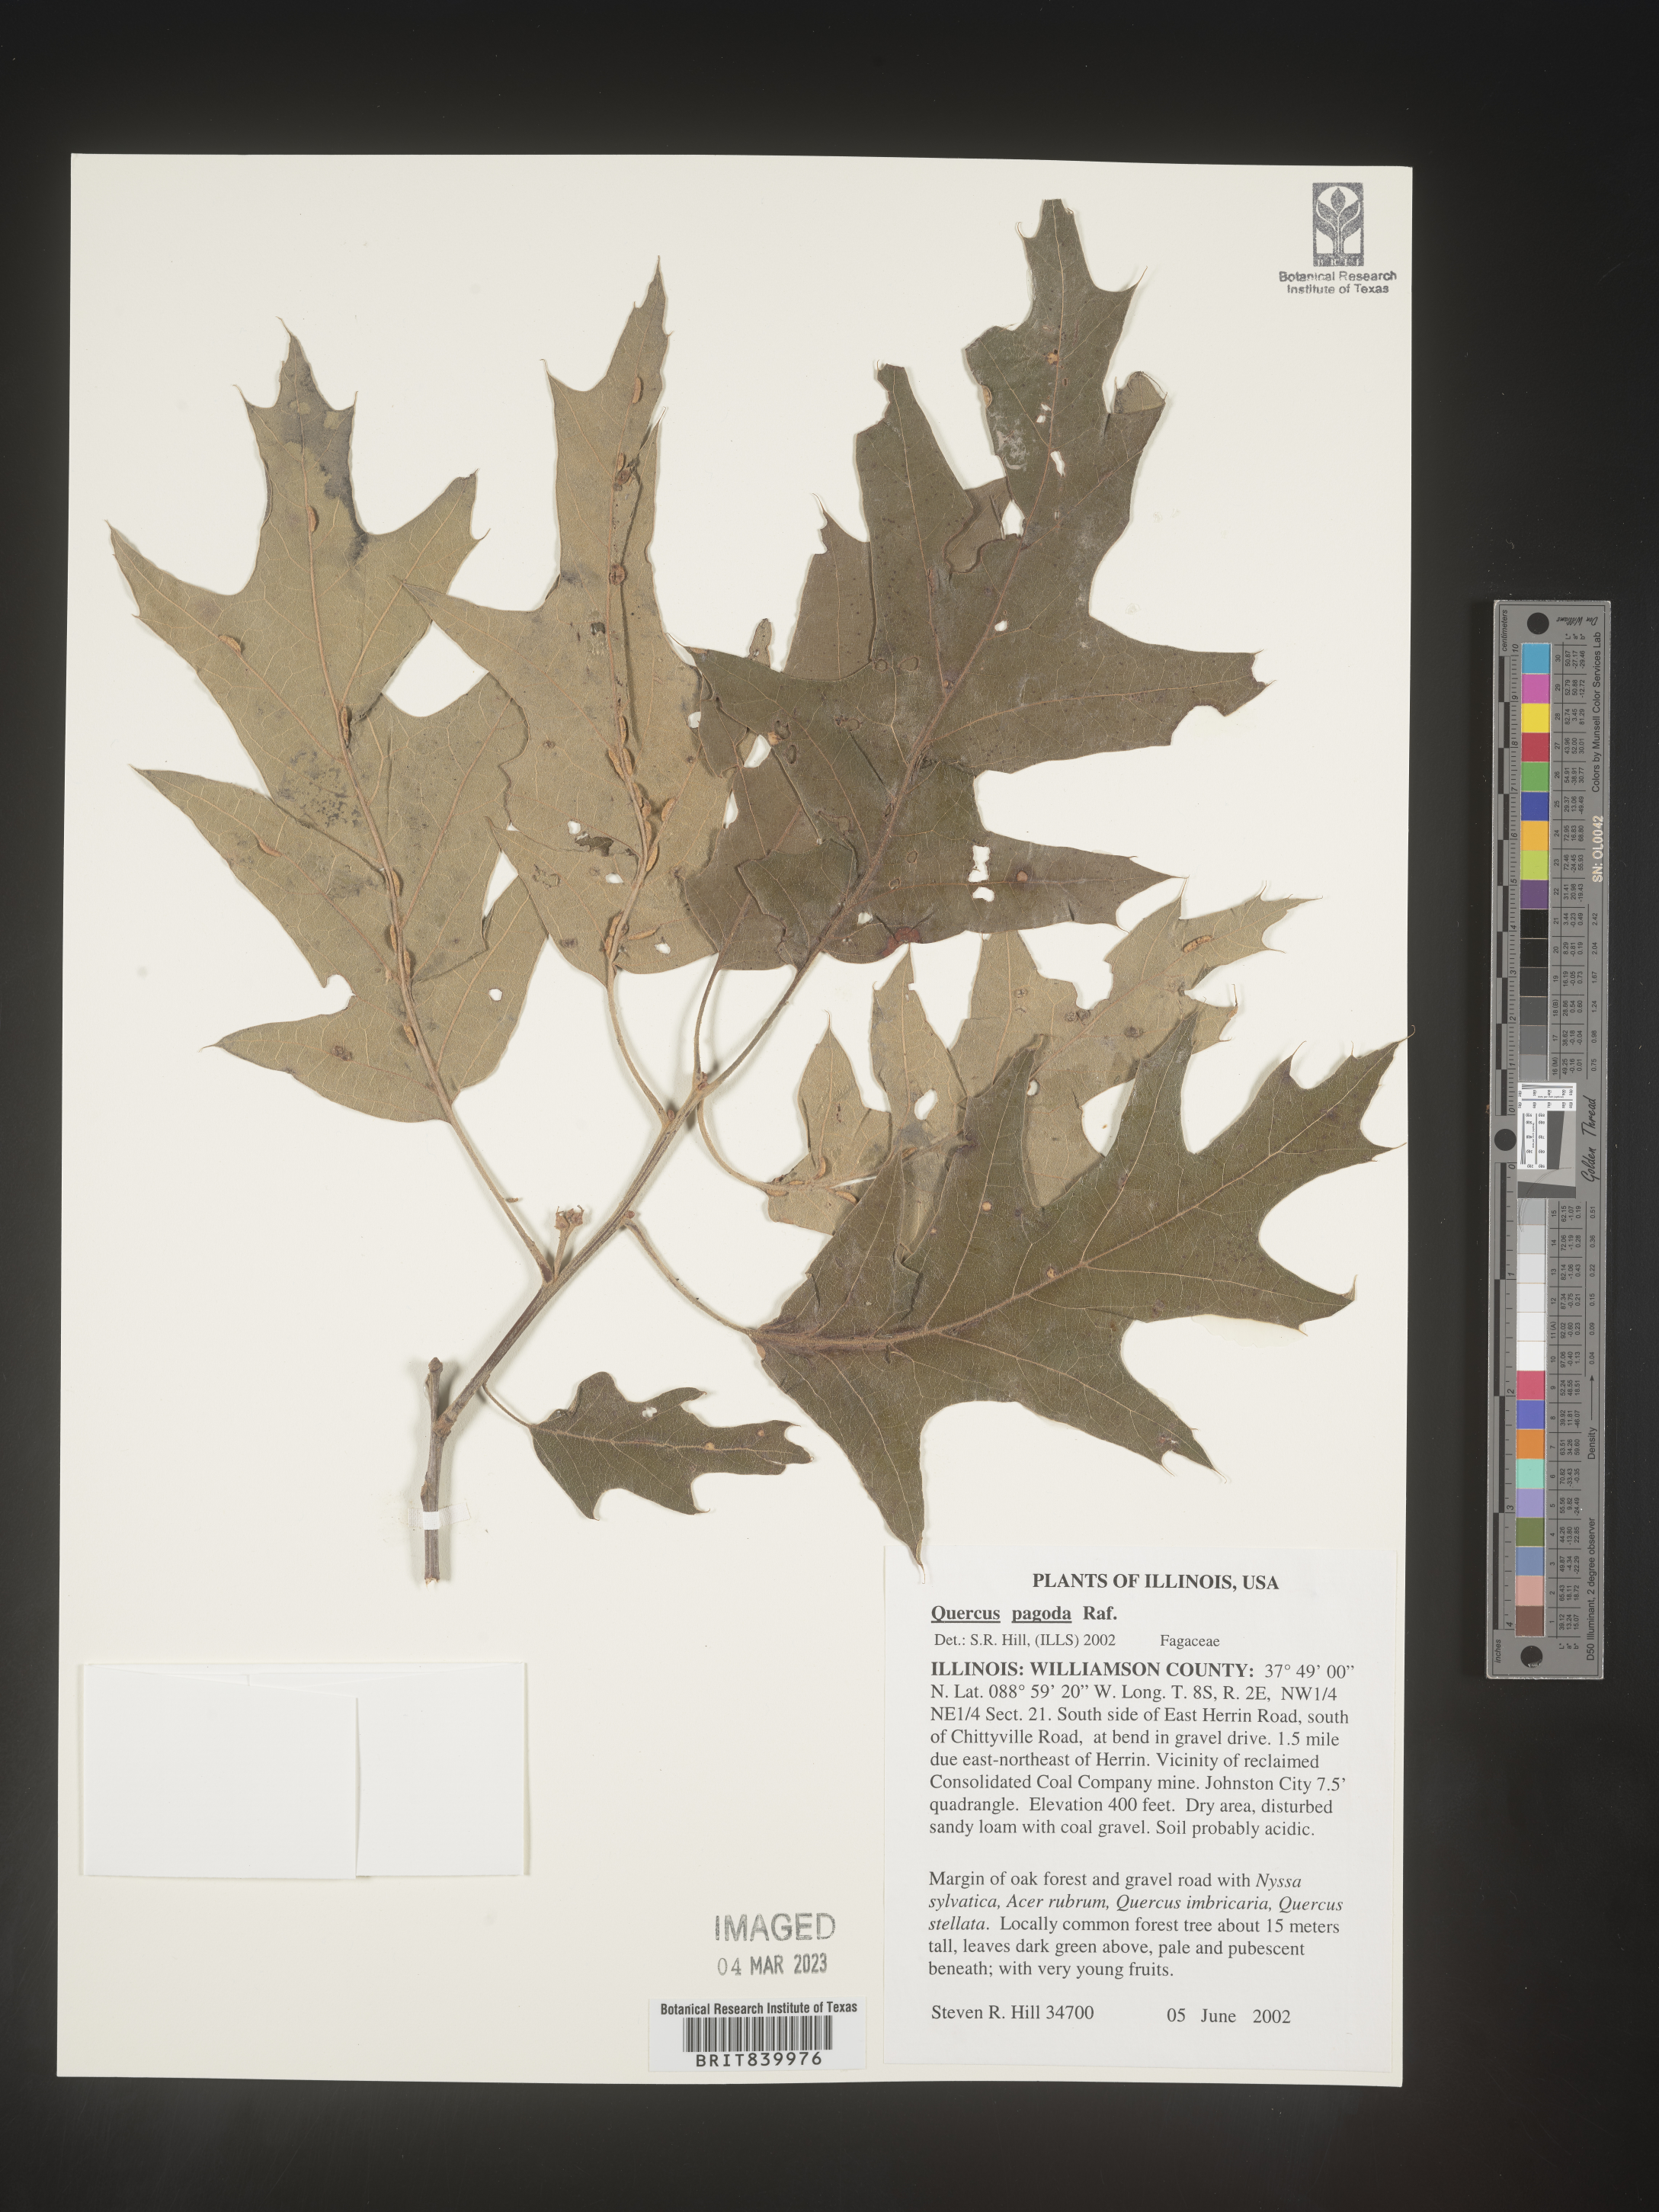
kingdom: Plantae
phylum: Tracheophyta
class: Magnoliopsida
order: Fagales
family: Fagaceae
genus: Quercus
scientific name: Quercus pagoda
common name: Cherrybark oak
